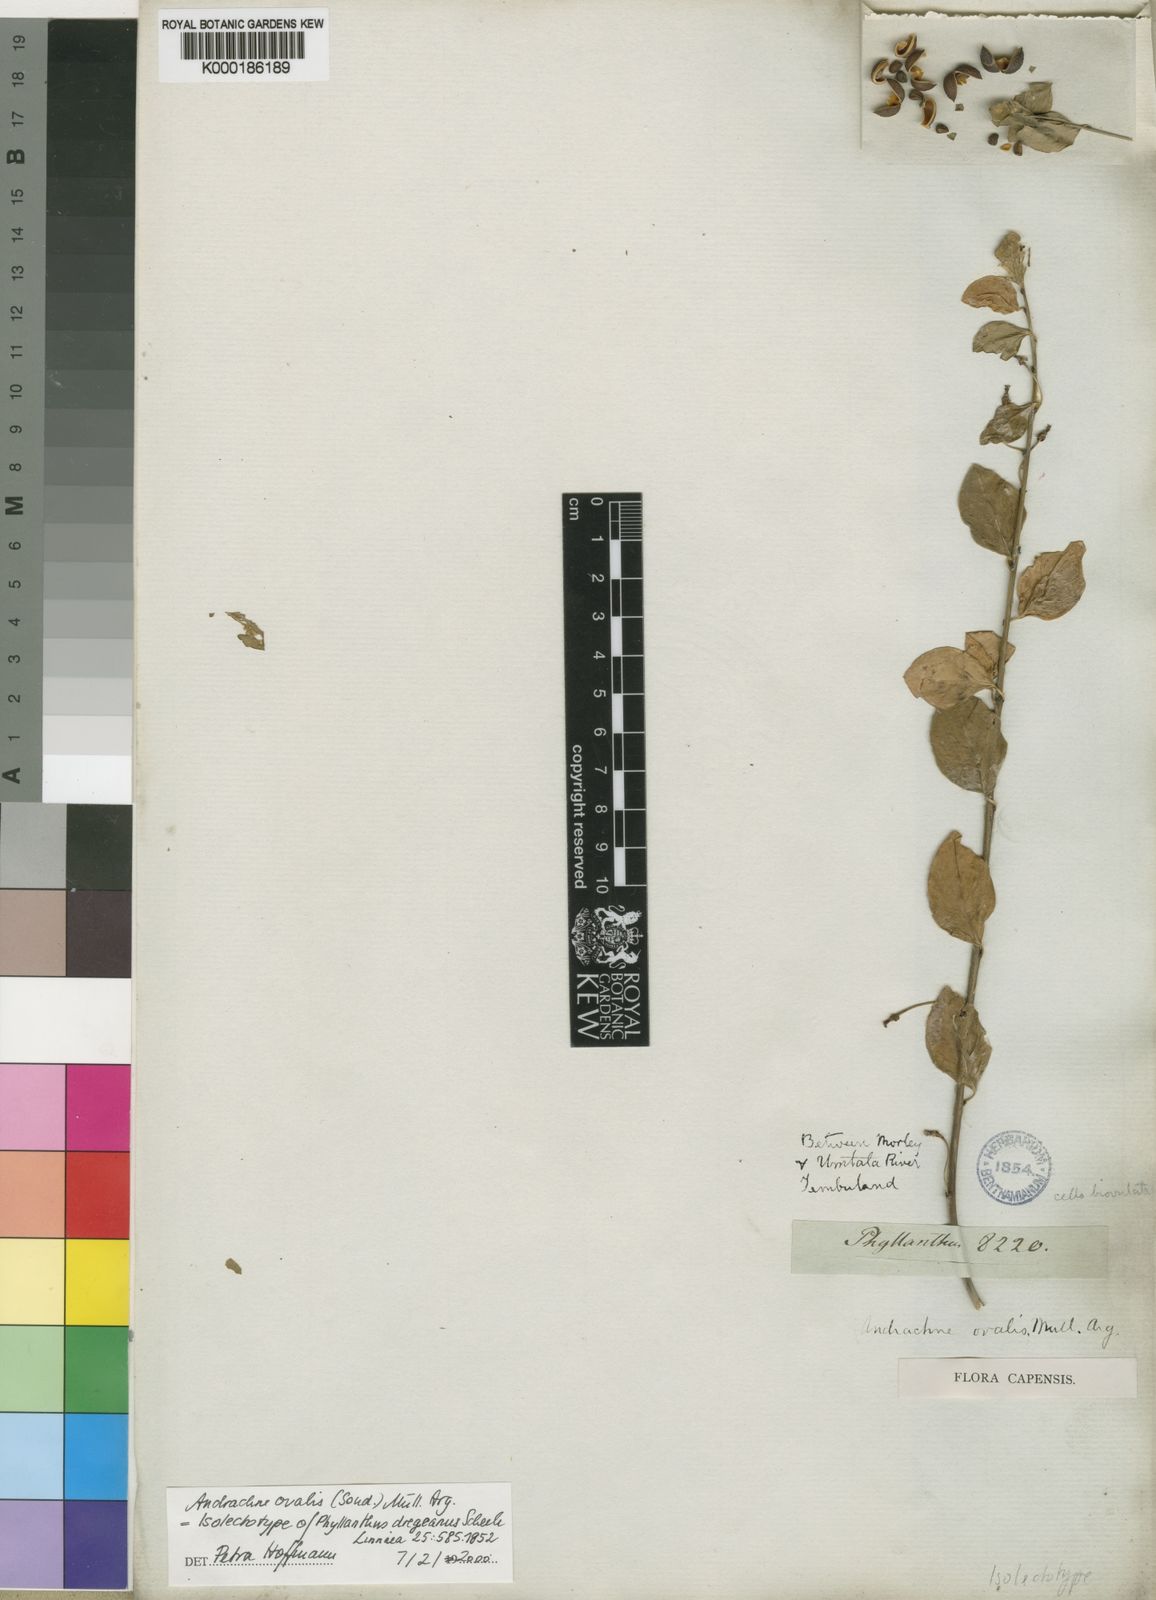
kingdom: Plantae
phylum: Tracheophyta
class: Magnoliopsida
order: Malpighiales
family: Phyllanthaceae
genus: Pseudophyllanthus
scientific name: Pseudophyllanthus ovalis
